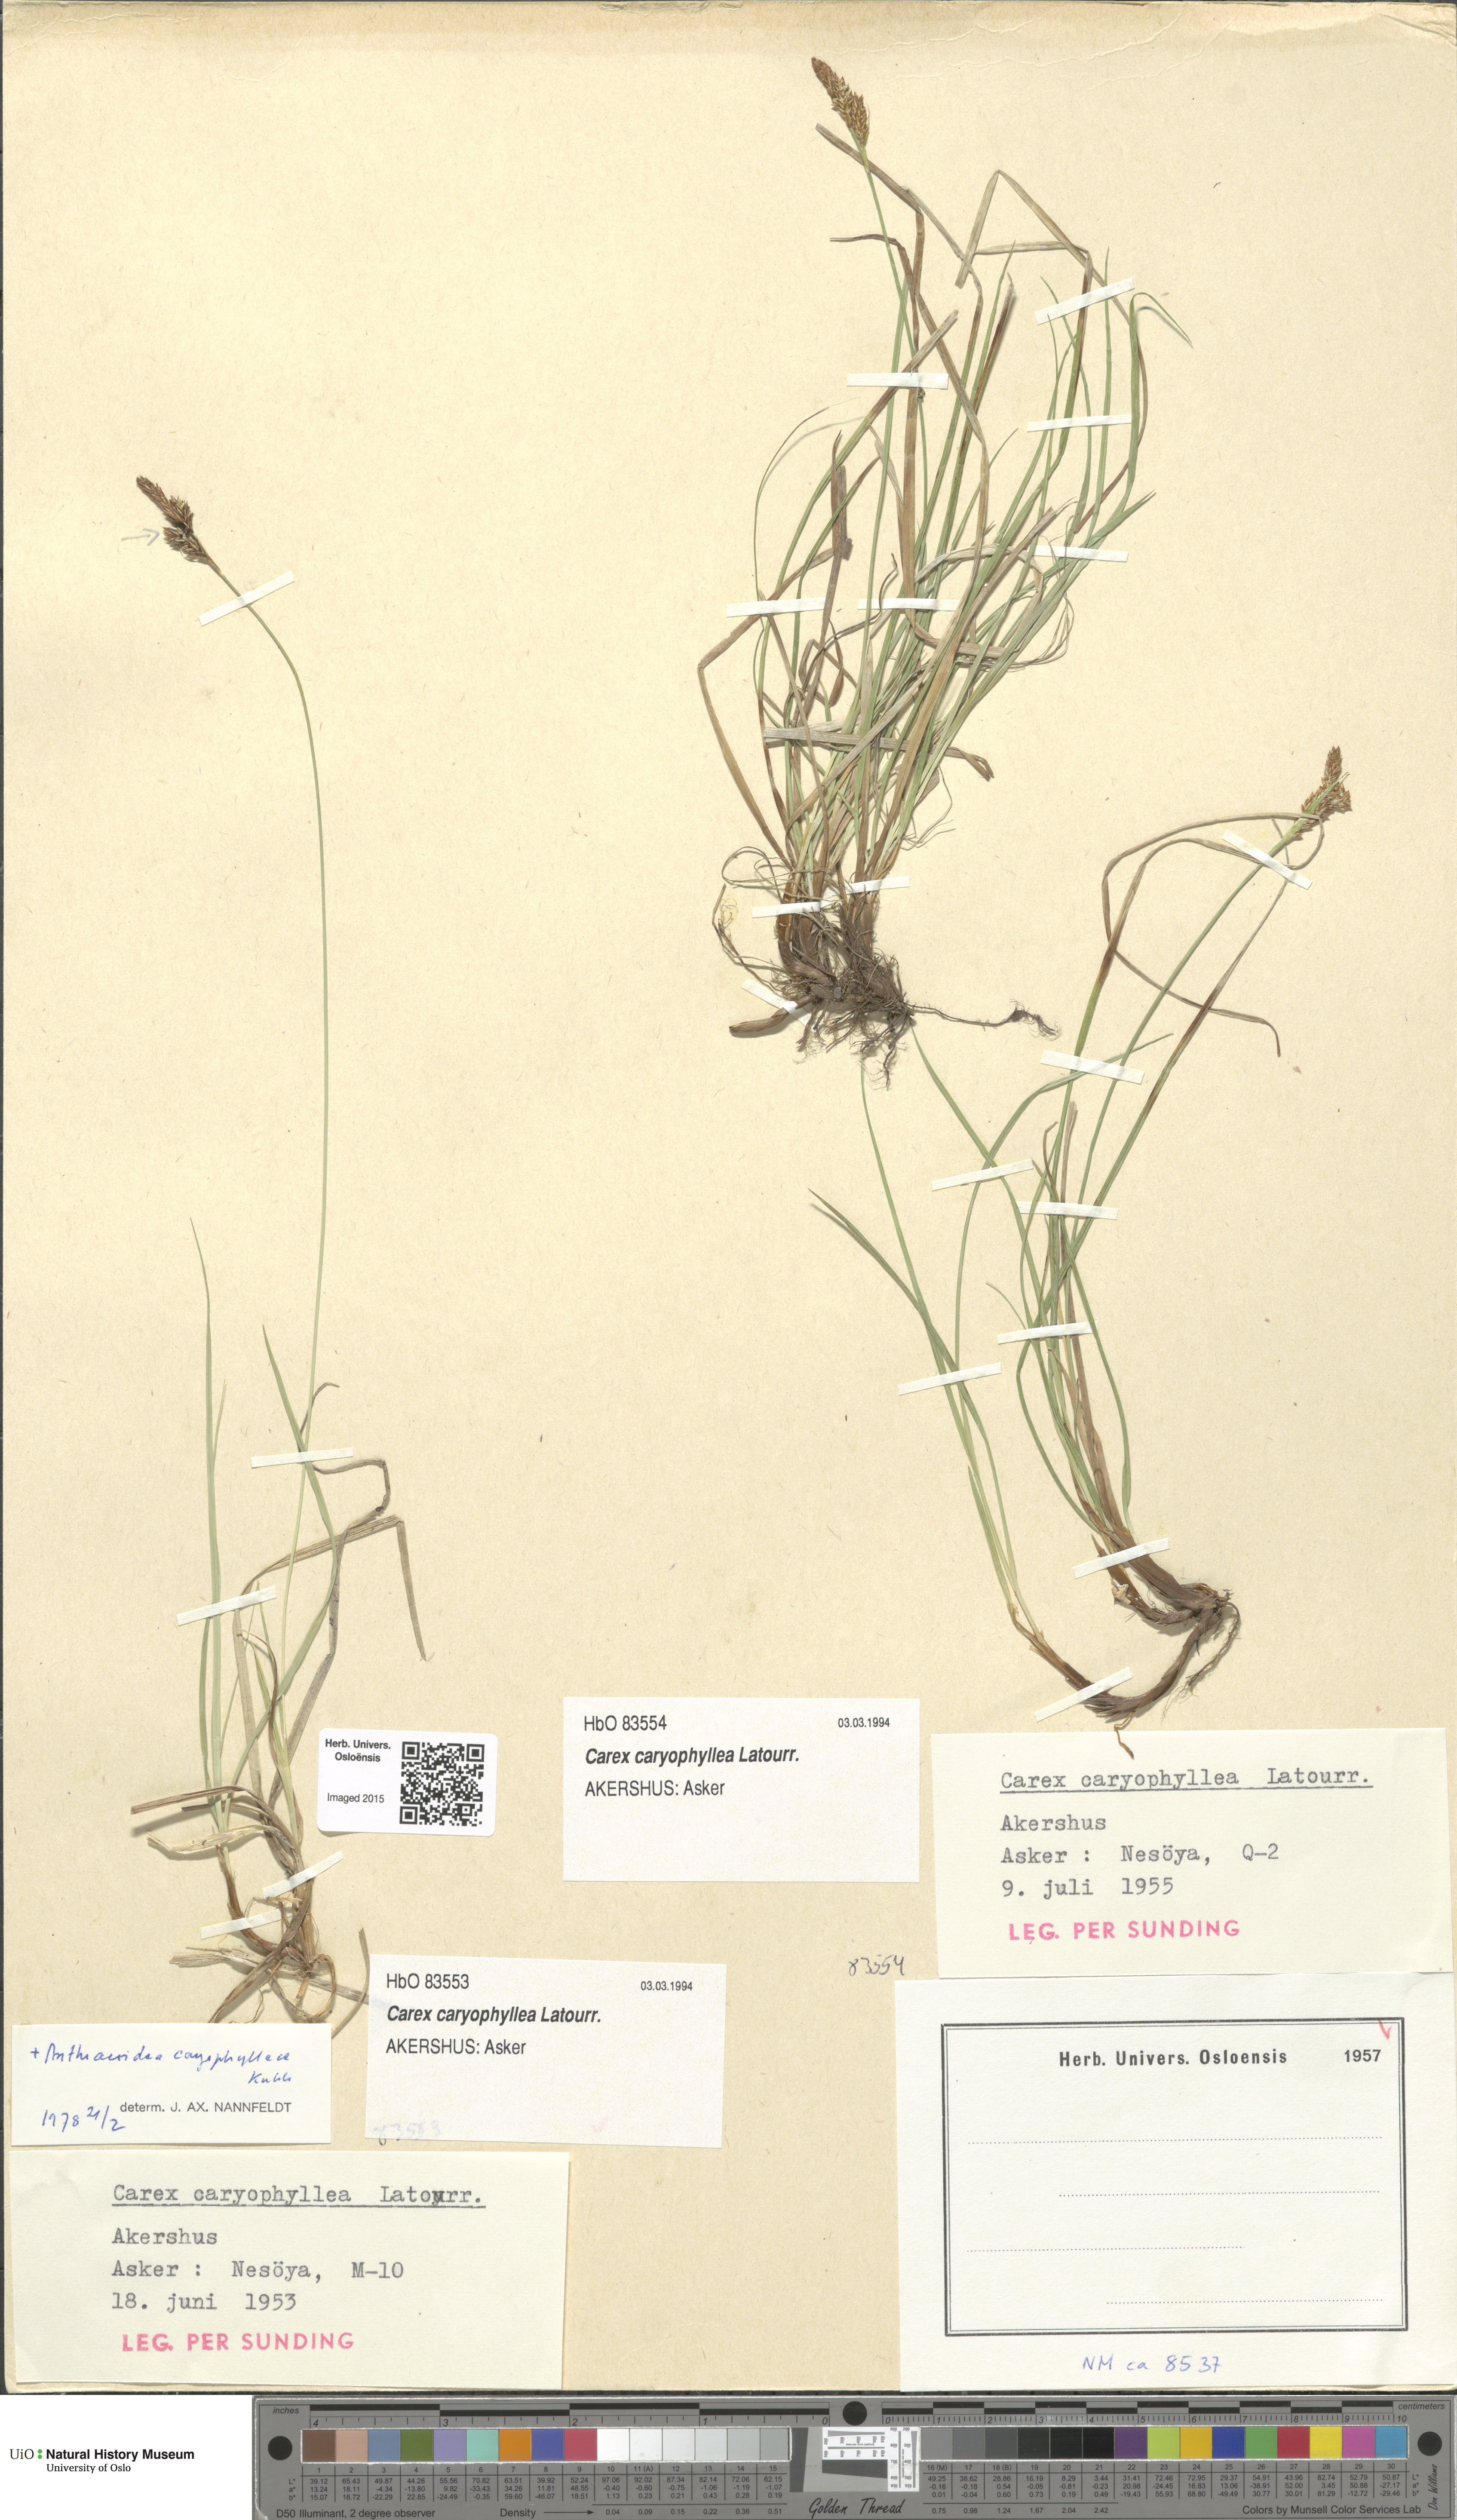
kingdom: Plantae
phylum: Tracheophyta
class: Liliopsida
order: Poales
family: Cyperaceae
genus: Carex
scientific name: Carex caryophyllea
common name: Spring sedge
